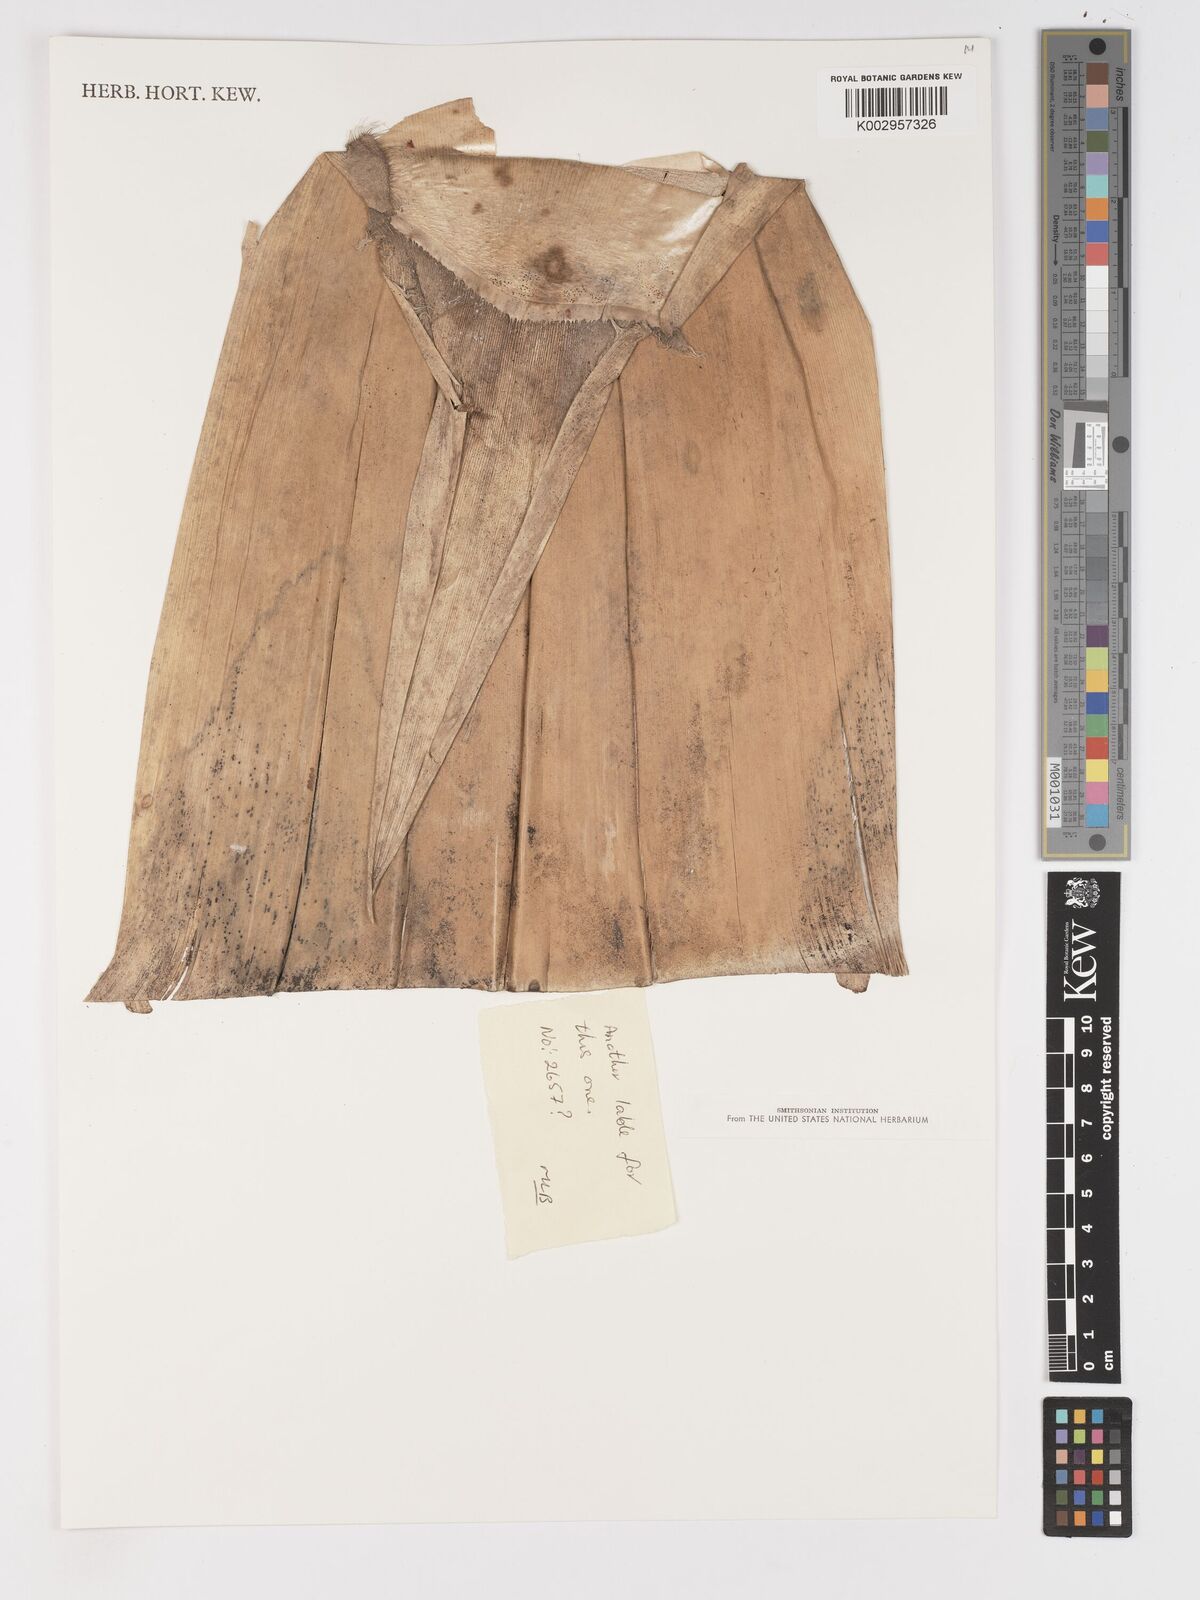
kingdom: Plantae
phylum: Tracheophyta
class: Liliopsida
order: Poales
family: Poaceae
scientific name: Poaceae
